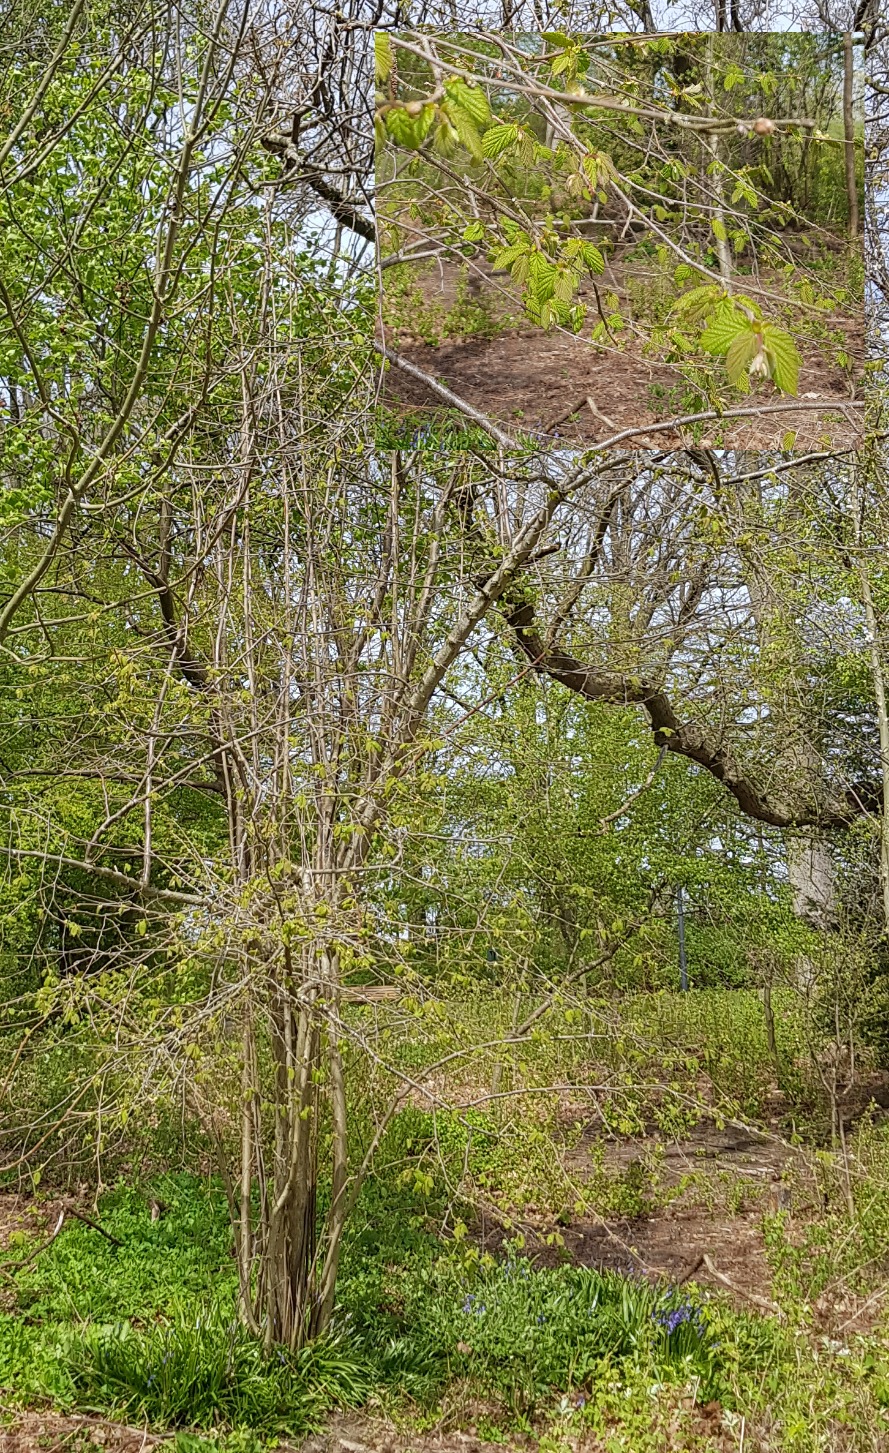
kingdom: Plantae
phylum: Tracheophyta
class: Magnoliopsida
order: Fagales
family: Betulaceae
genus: Corylus
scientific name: Corylus avellana
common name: Hassel
